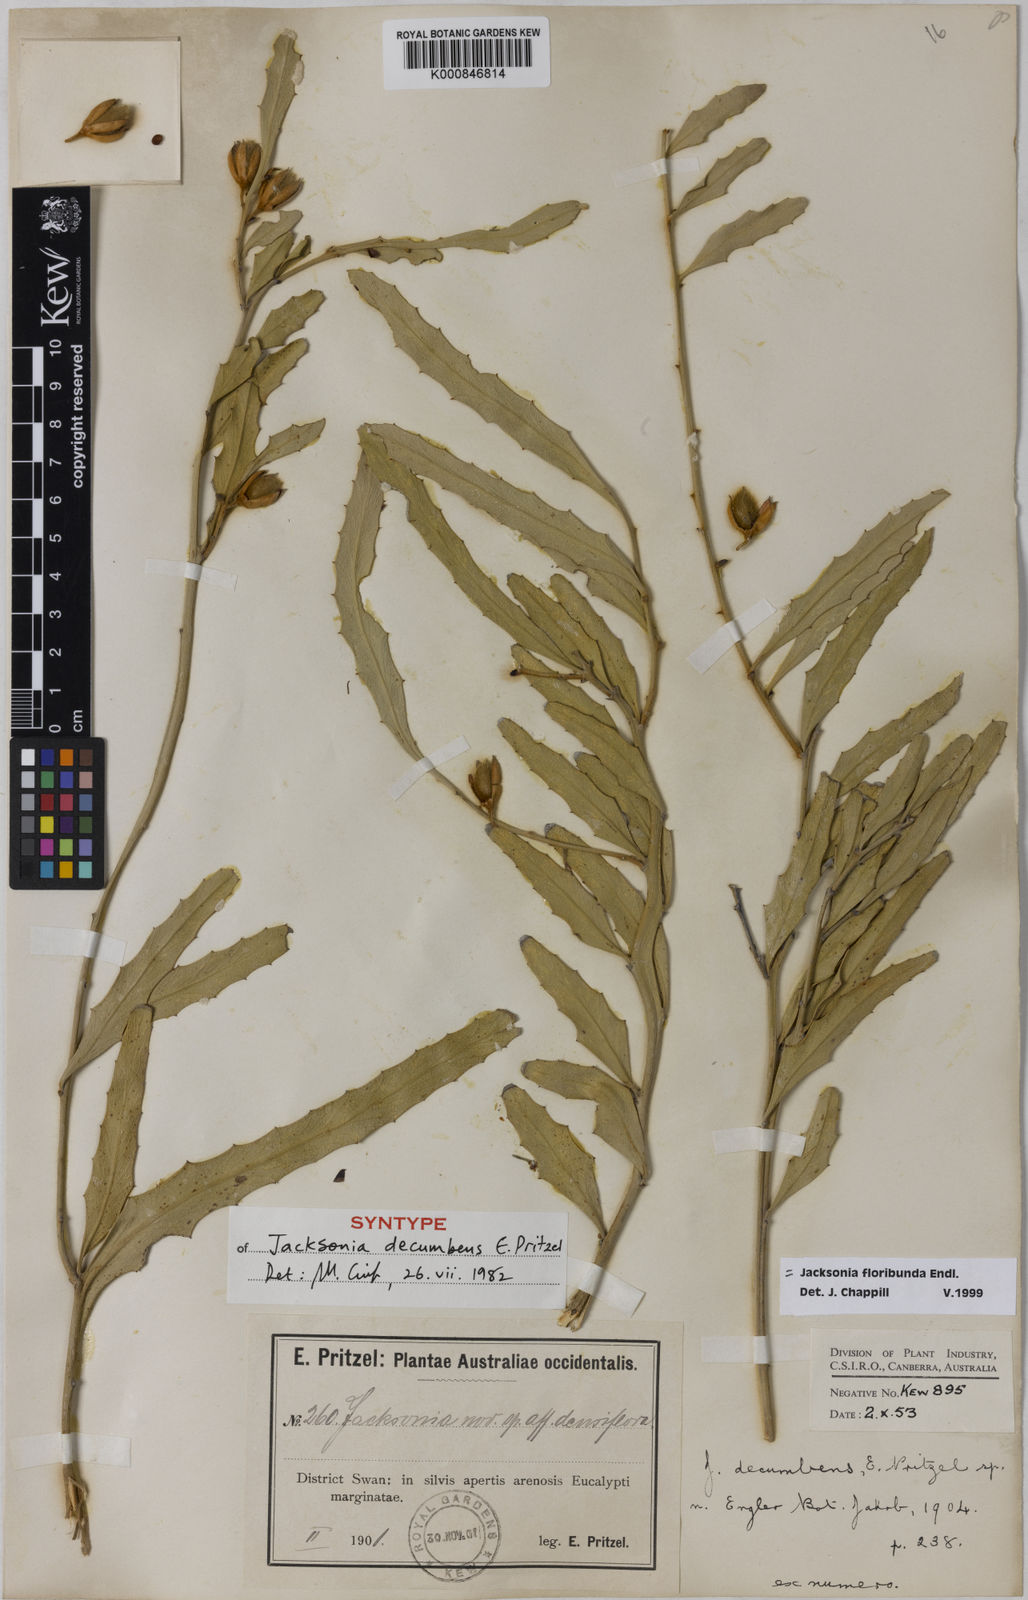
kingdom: Plantae
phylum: Tracheophyta
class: Magnoliopsida
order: Fabales
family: Fabaceae
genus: Jacksonia
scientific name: Jacksonia floribunda
